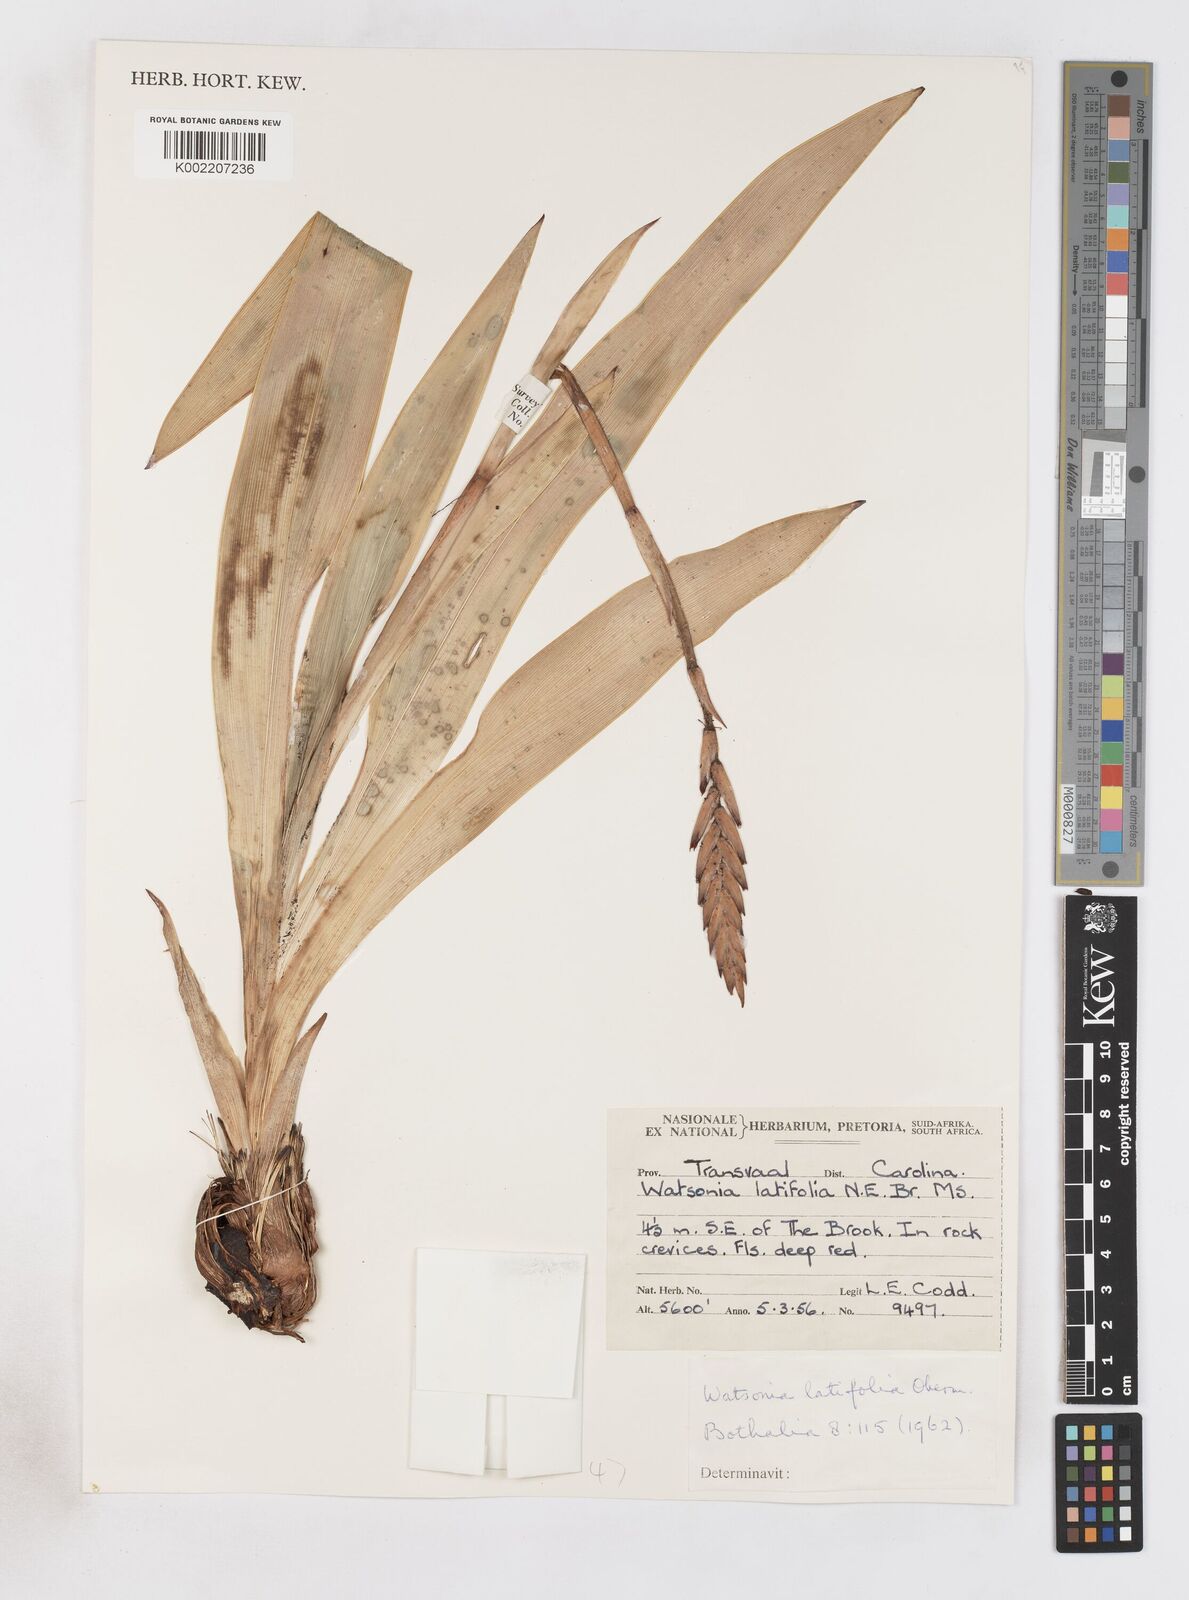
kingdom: Plantae
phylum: Tracheophyta
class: Liliopsida
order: Asparagales
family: Iridaceae
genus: Watsonia
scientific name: Watsonia latifolia
